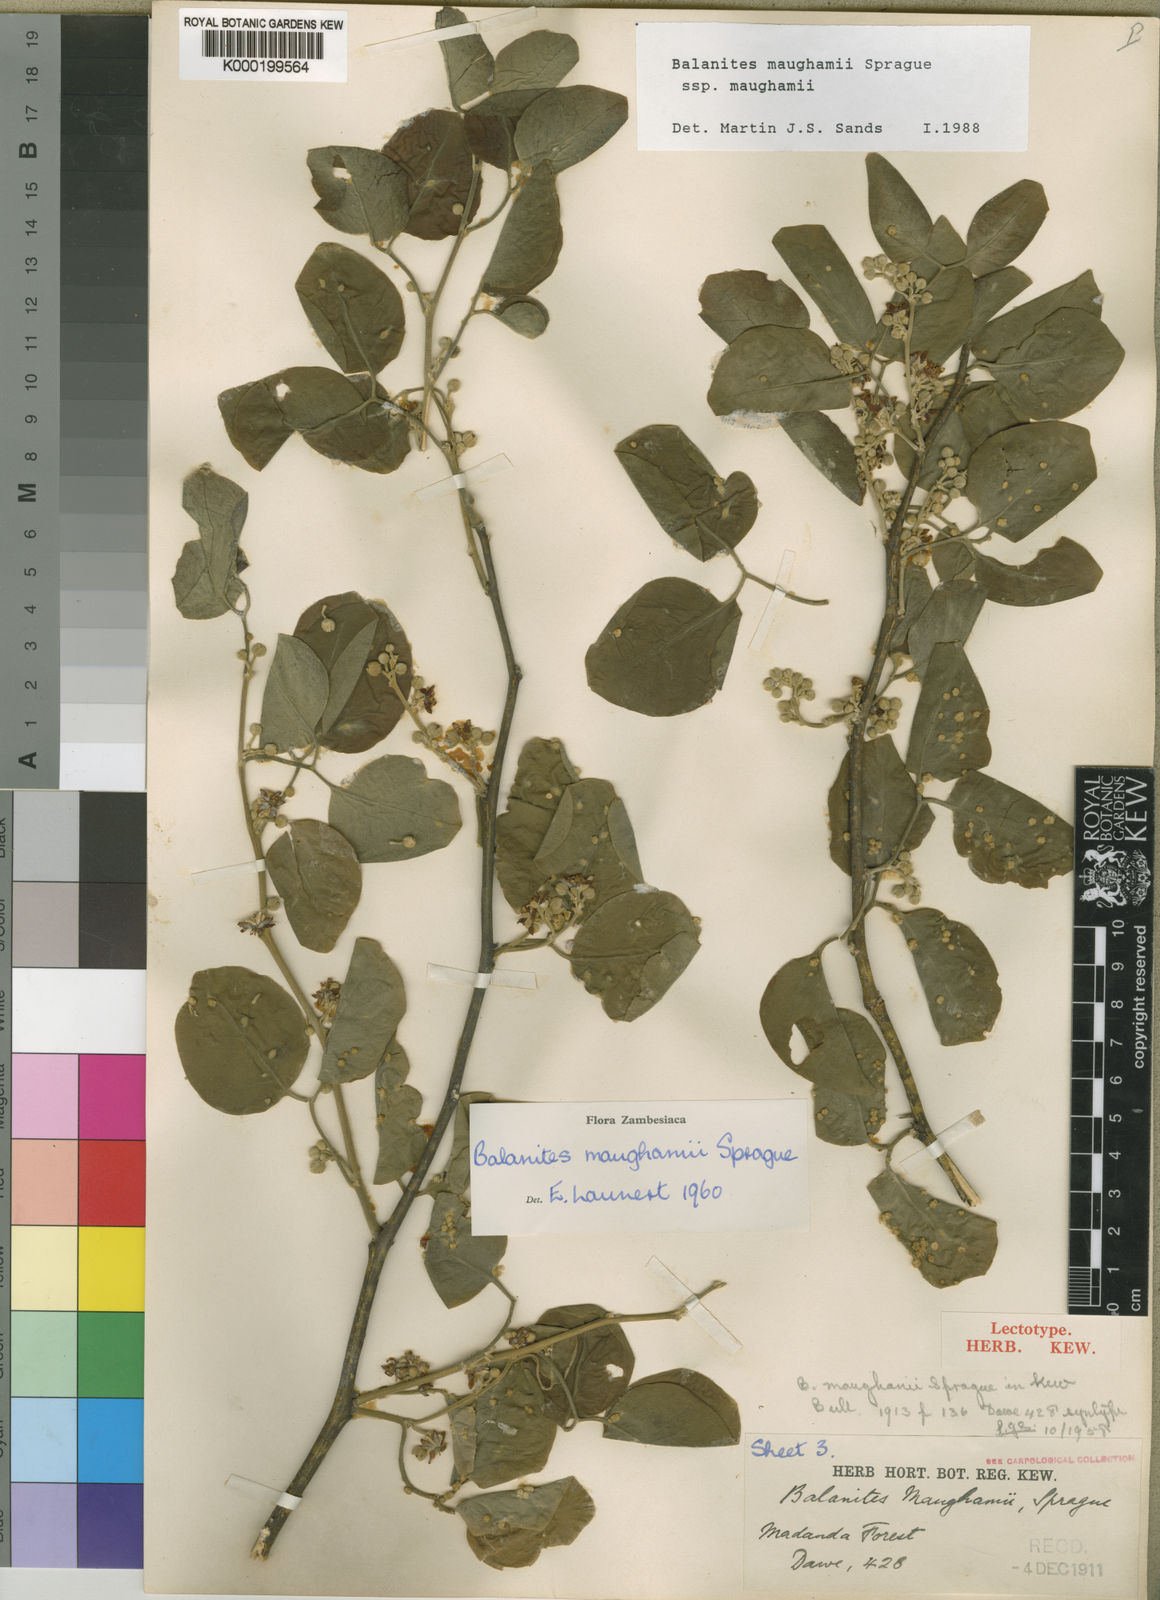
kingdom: Plantae
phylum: Tracheophyta
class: Magnoliopsida
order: Zygophyllales
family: Zygophyllaceae
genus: Balanites
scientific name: Balanites maughamii
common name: Torchwood
